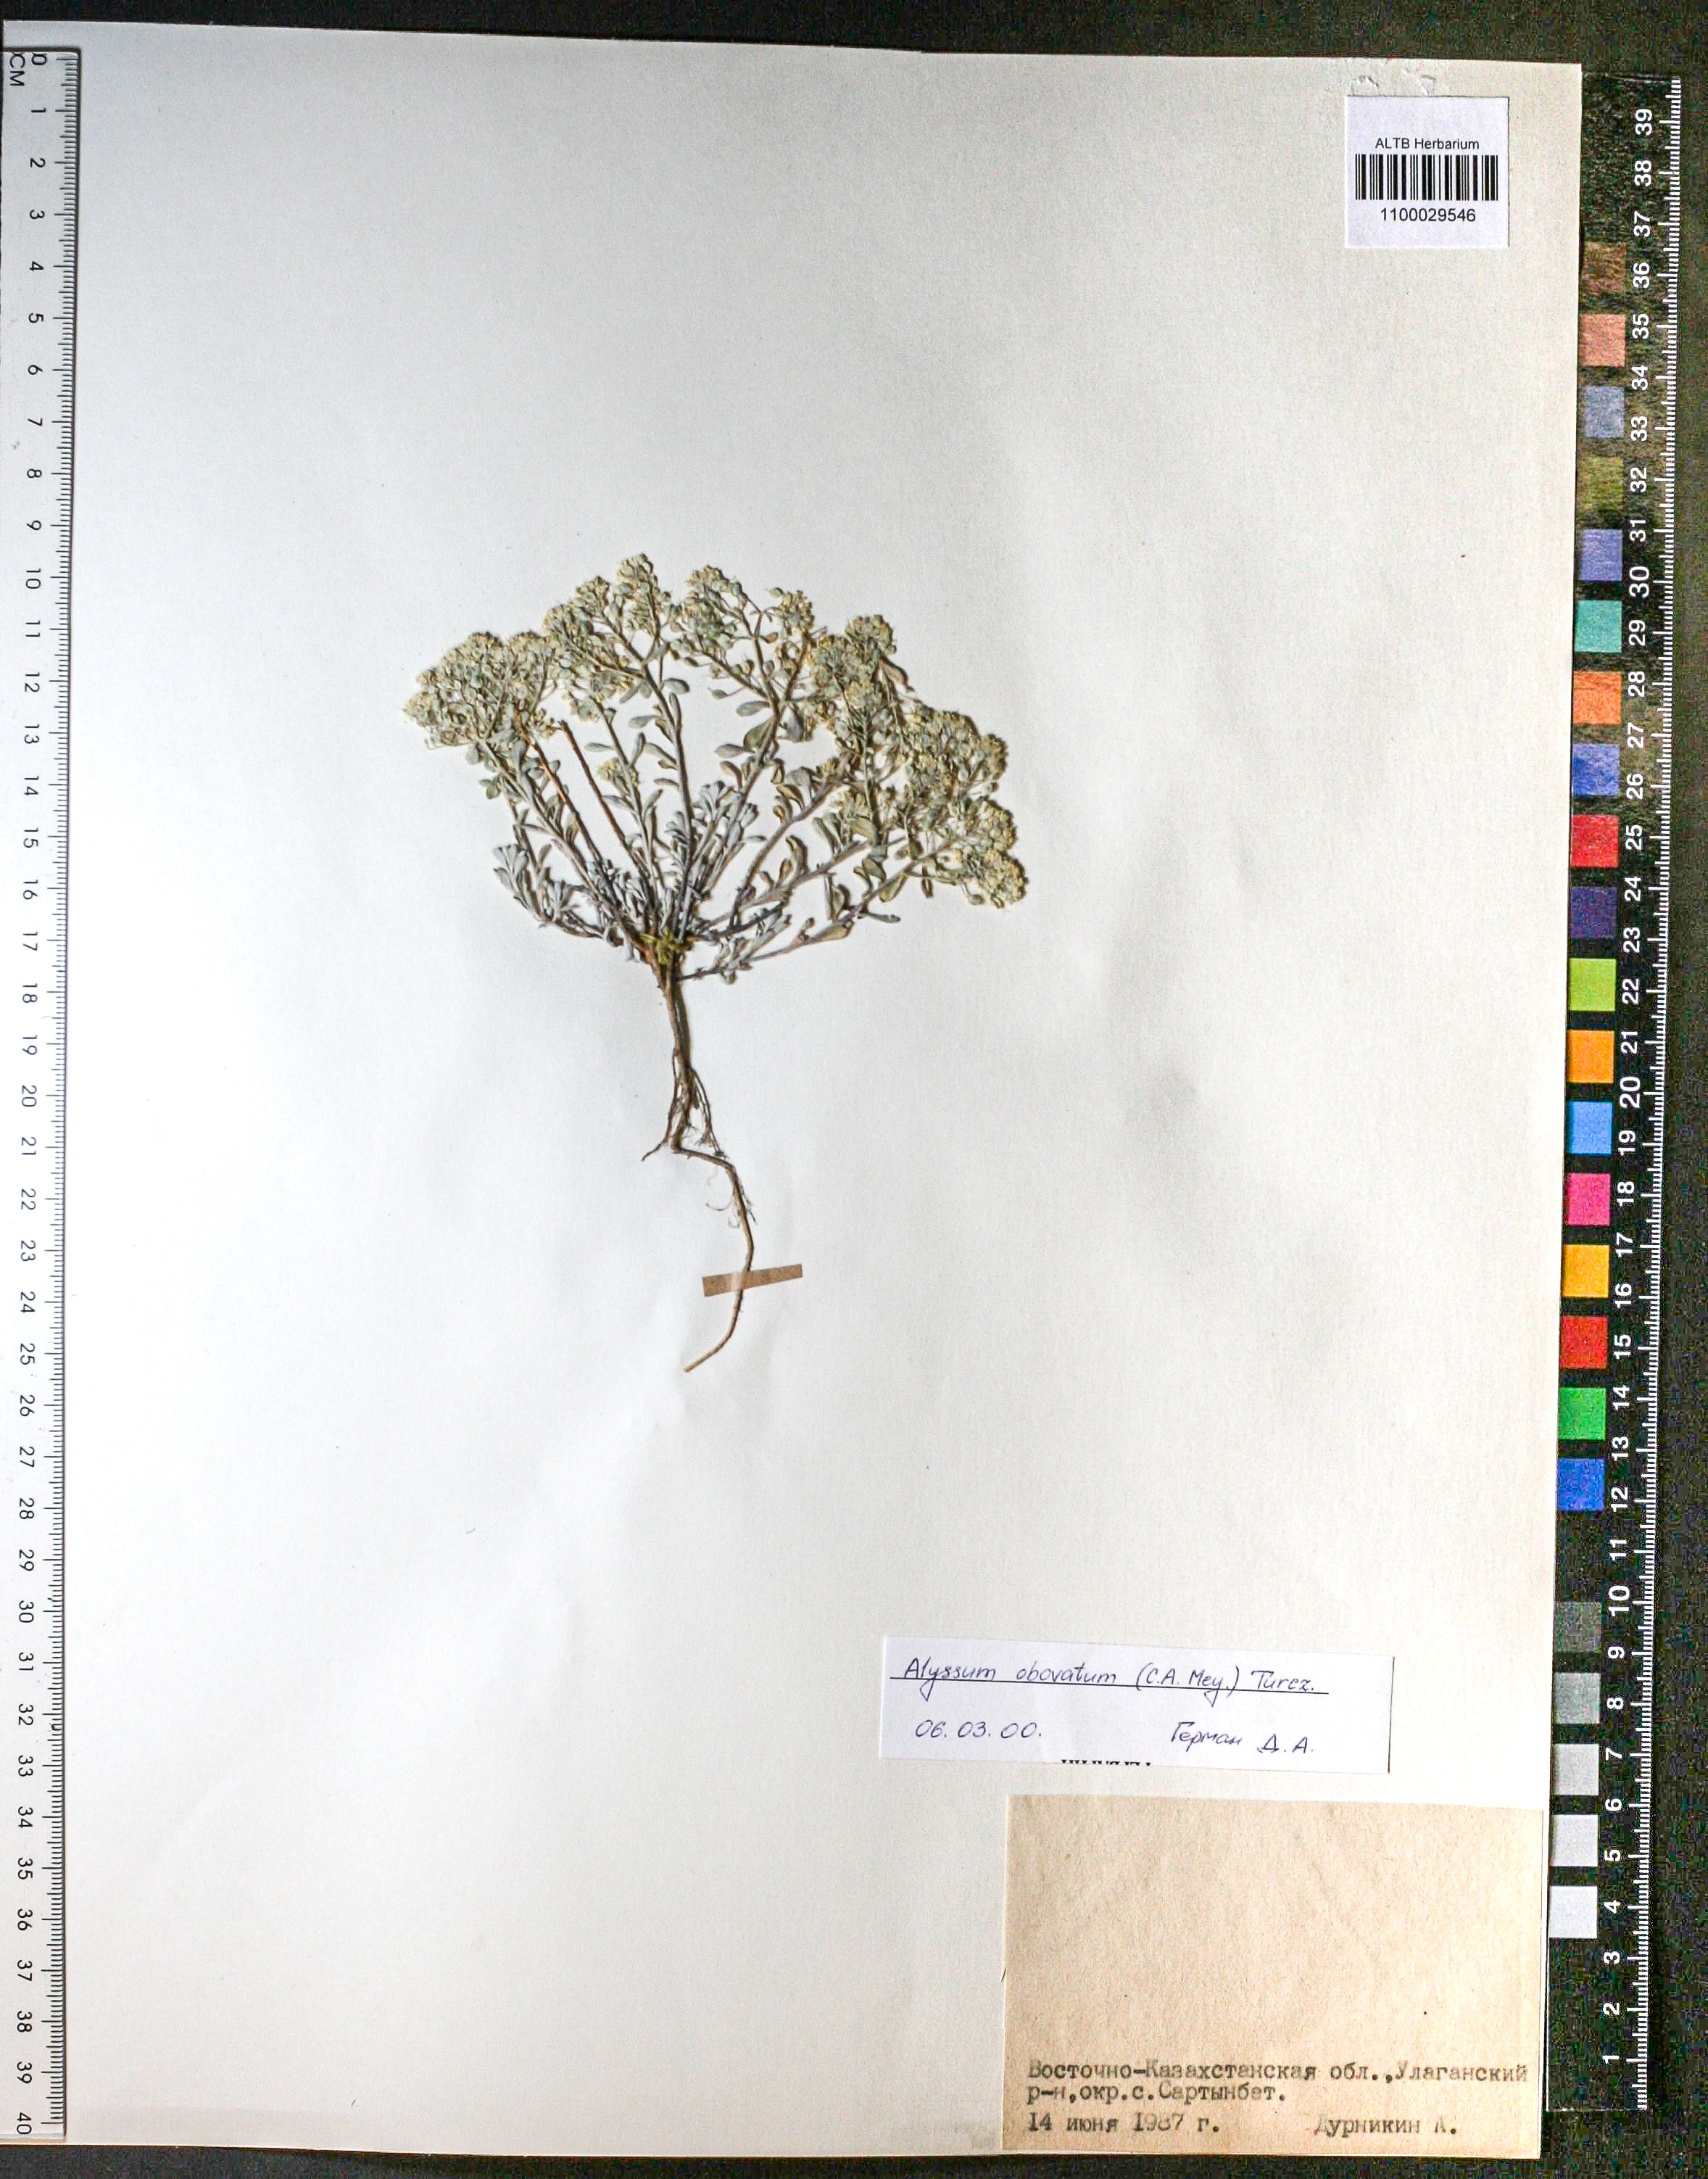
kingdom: Plantae
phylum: Tracheophyta
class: Magnoliopsida
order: Brassicales
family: Brassicaceae
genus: Odontarrhena
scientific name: Odontarrhena obovata
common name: American alyssum
